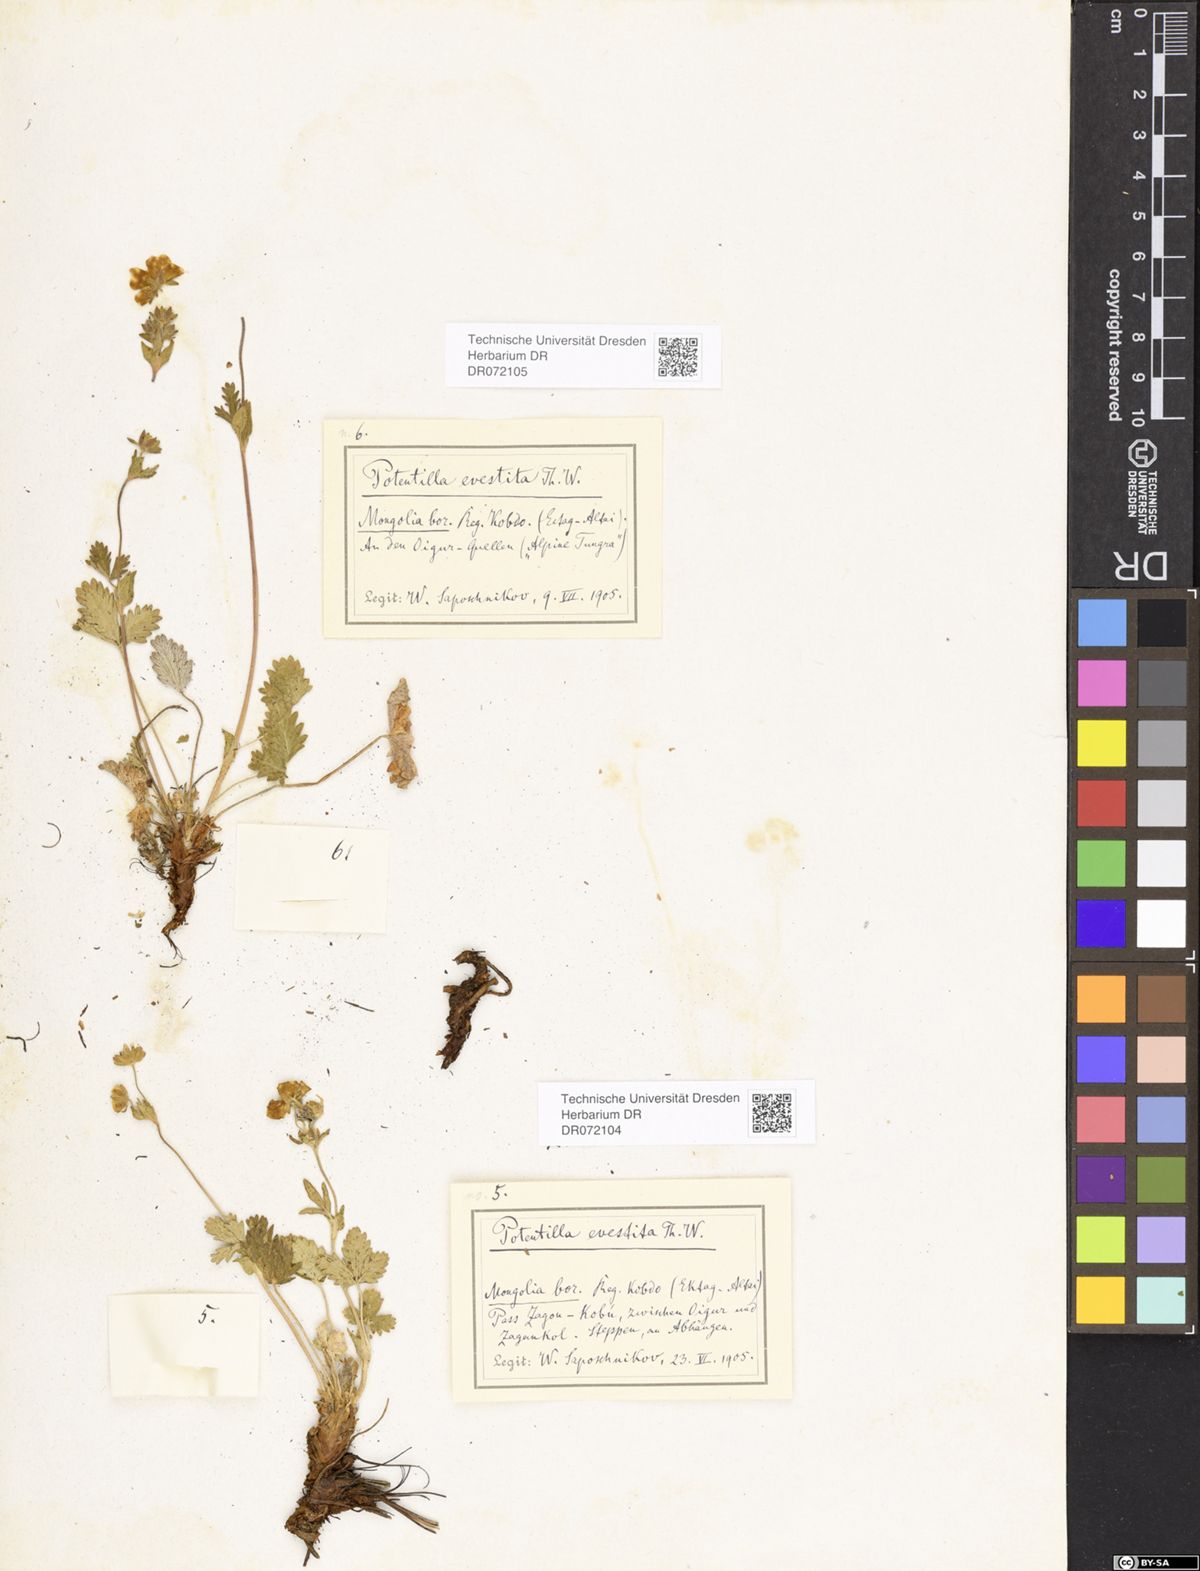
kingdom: Plantae
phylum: Tracheophyta
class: Magnoliopsida
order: Rosales
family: Rosaceae
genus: Potentilla
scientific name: Potentilla evestita
